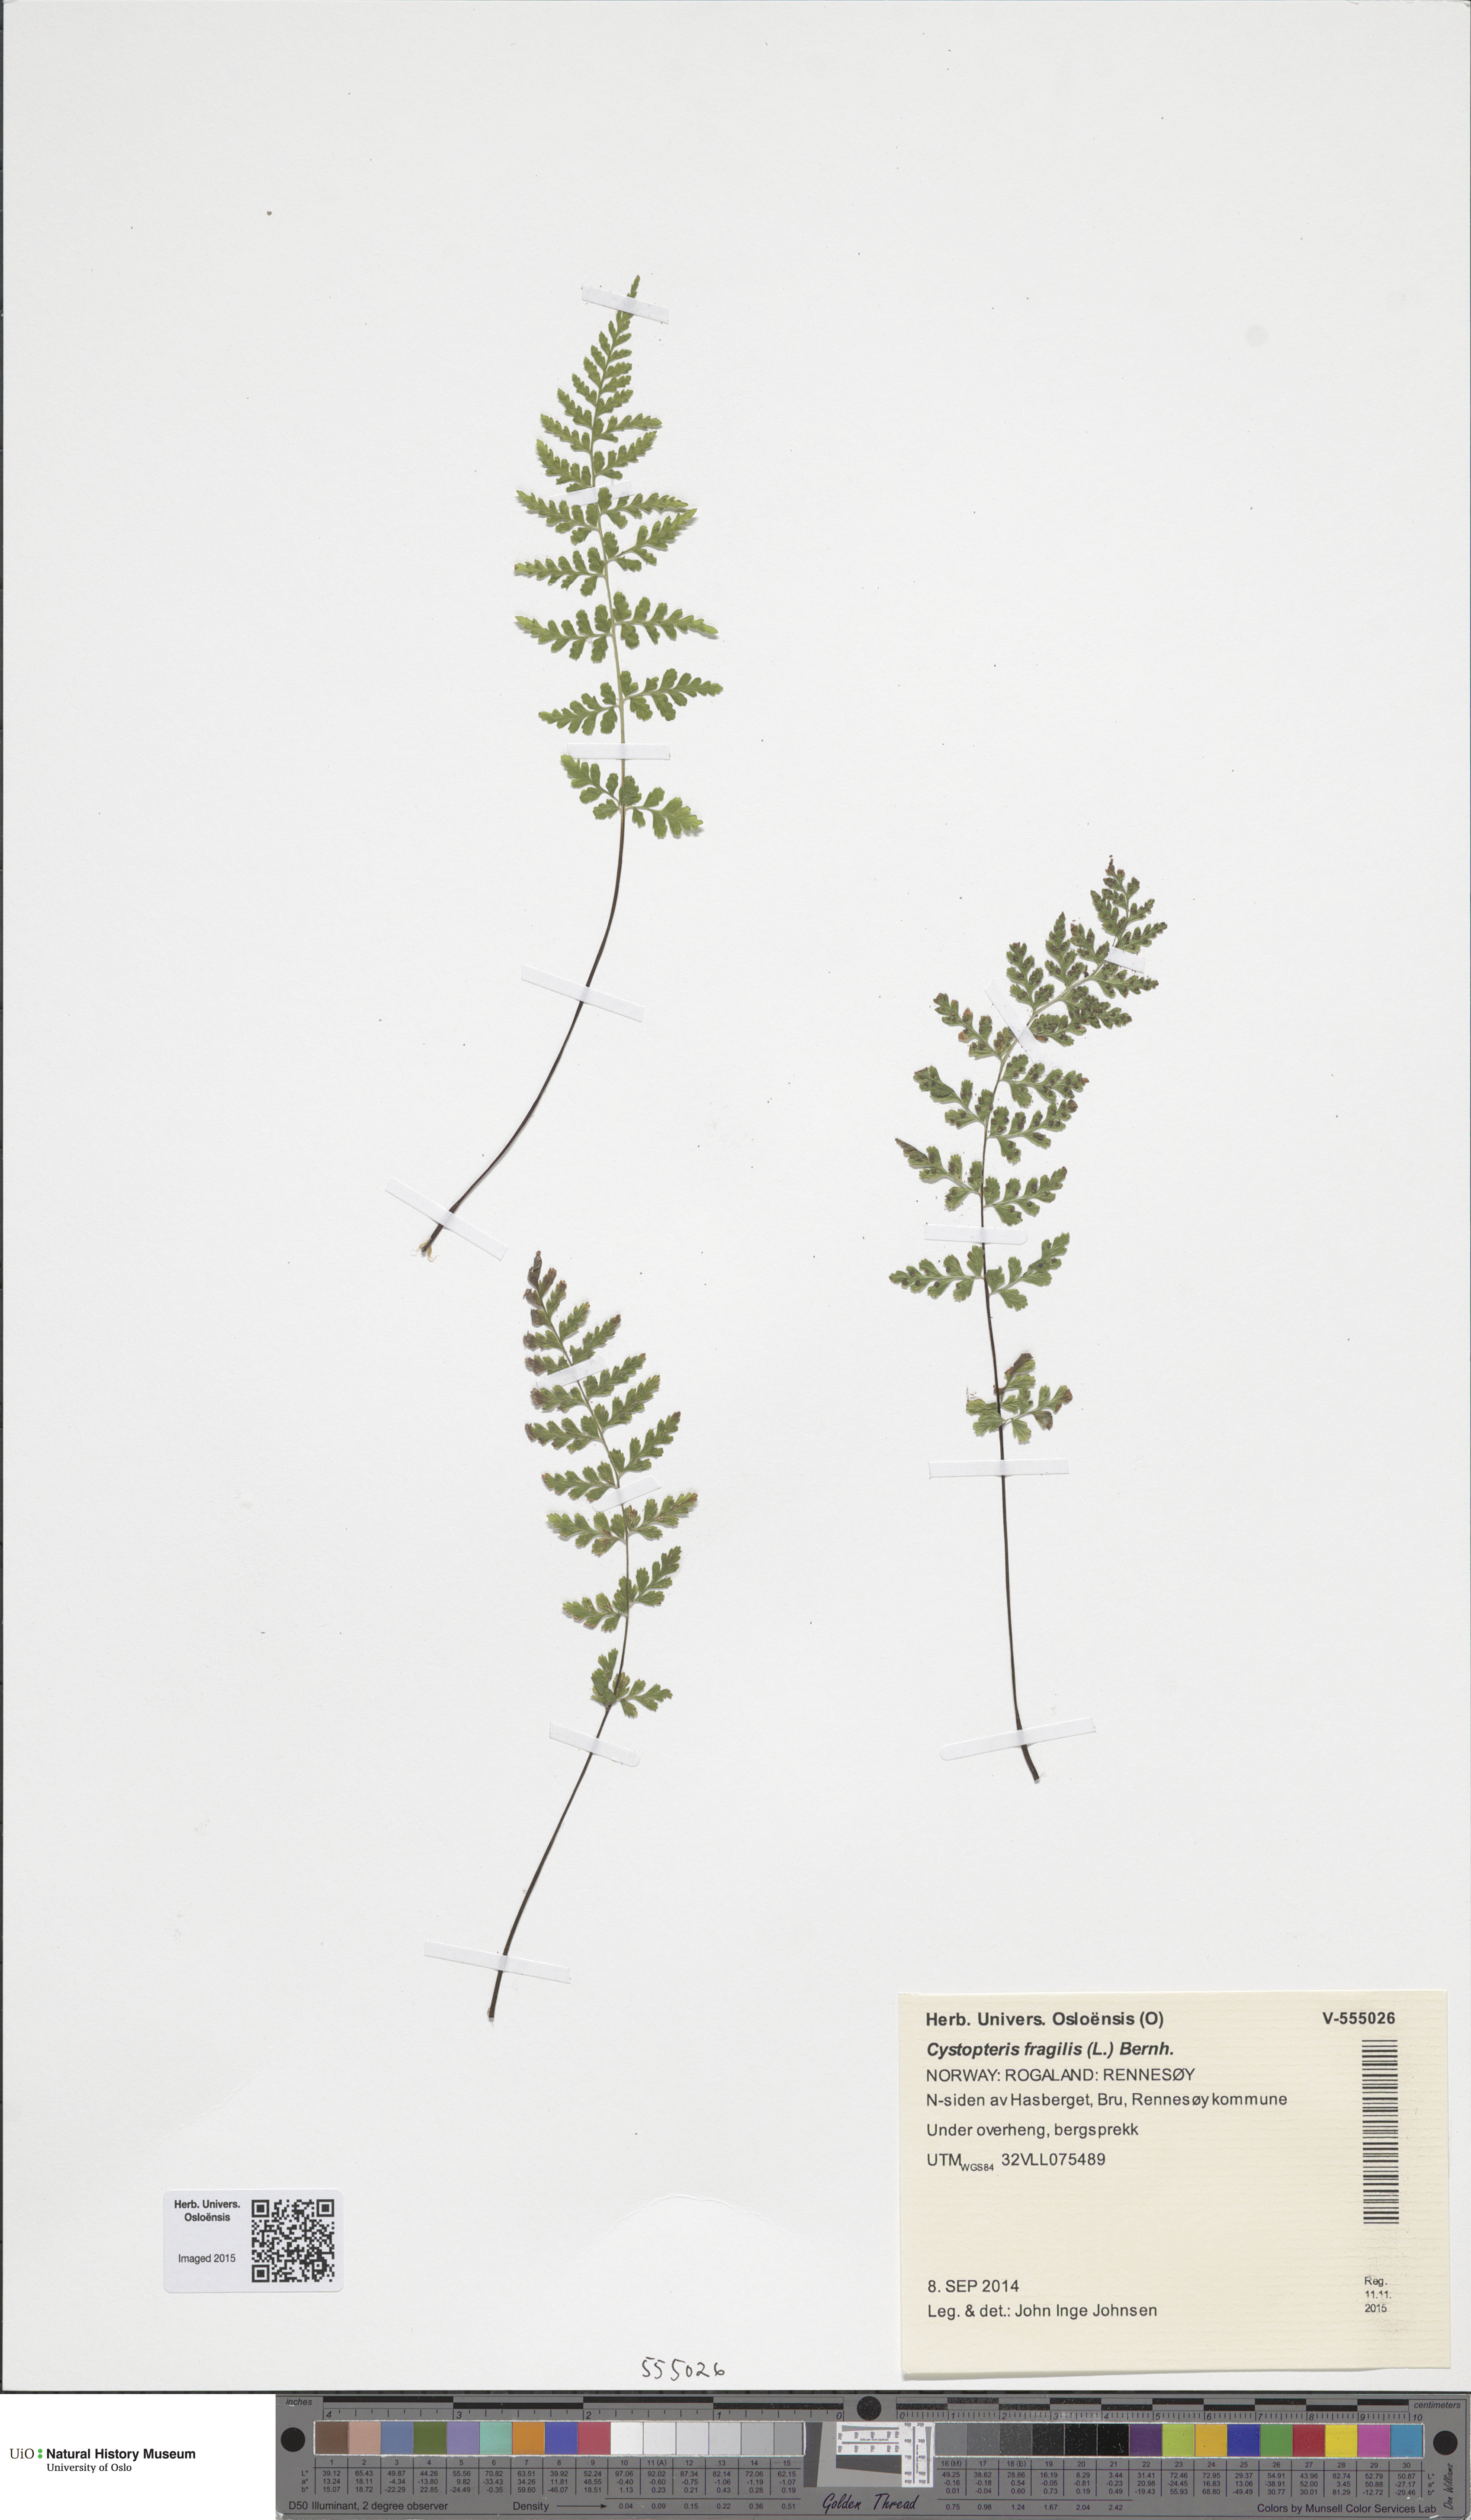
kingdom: Plantae
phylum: Tracheophyta
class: Polypodiopsida
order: Polypodiales
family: Cystopteridaceae
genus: Cystopteris
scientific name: Cystopteris fragilis
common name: Brittle bladder fern
